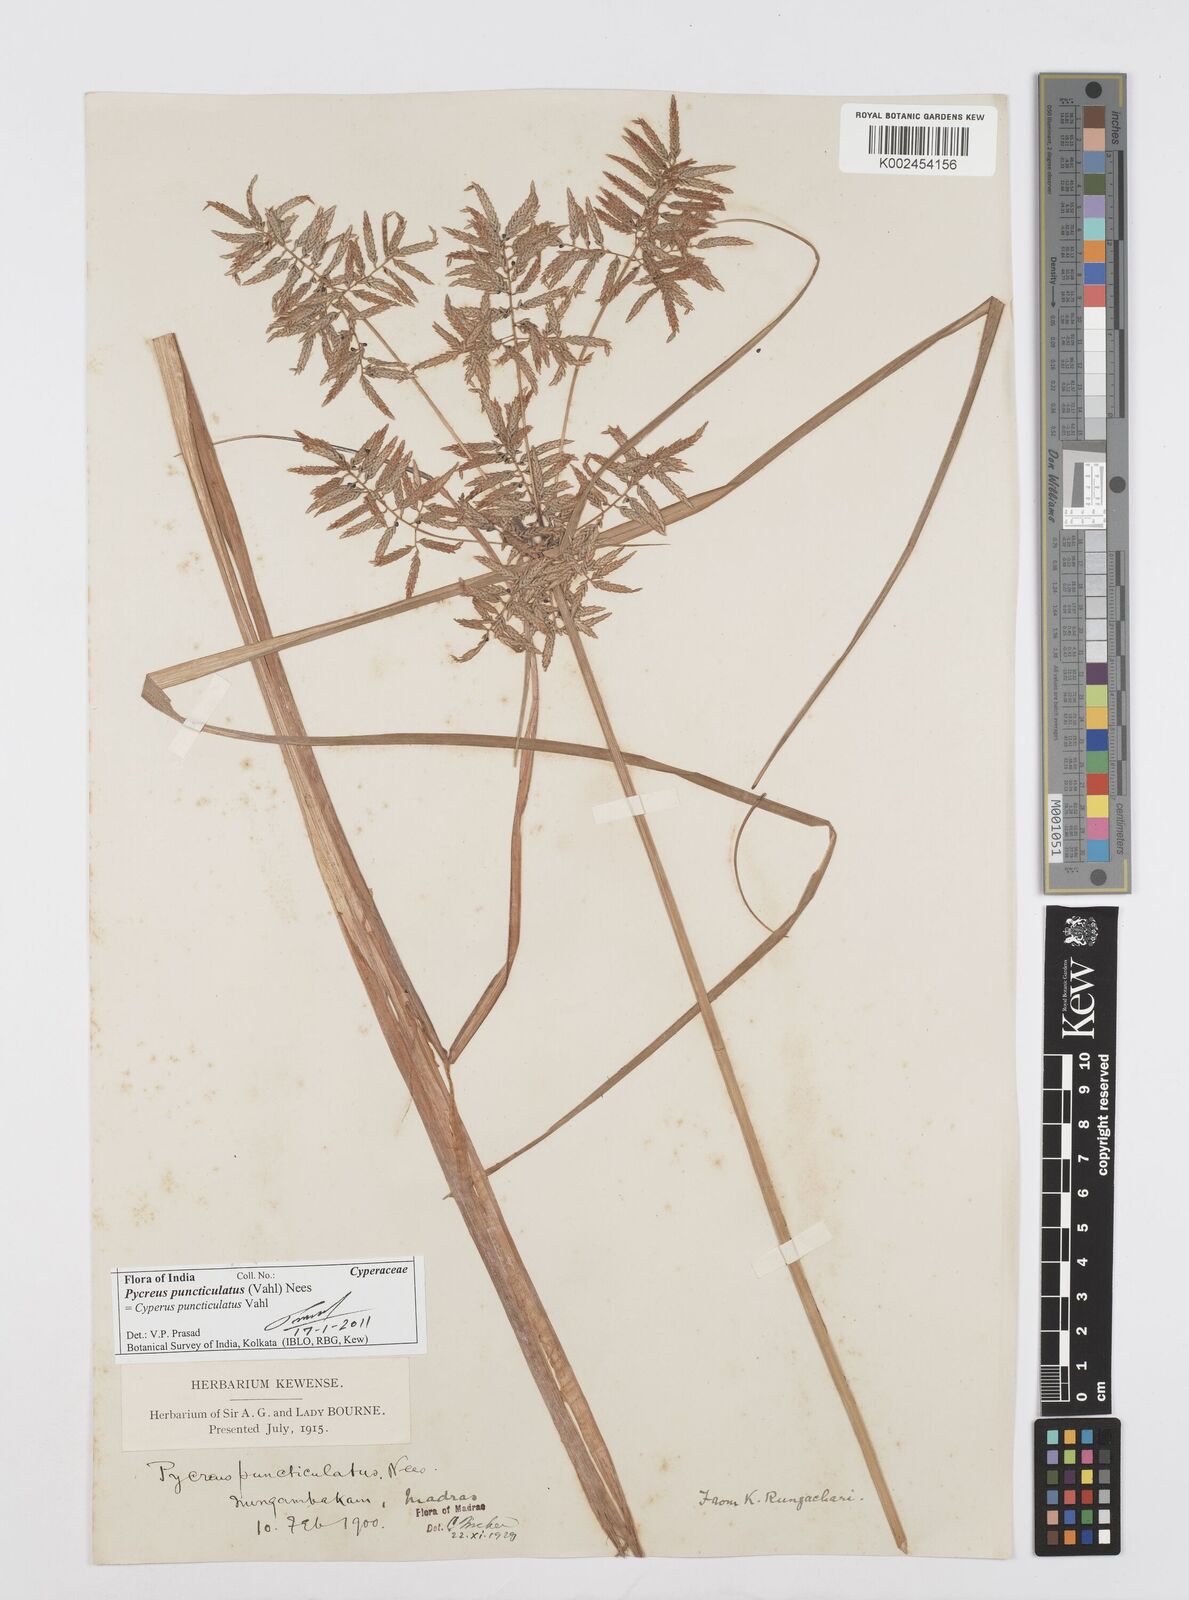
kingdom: Plantae
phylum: Tracheophyta
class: Liliopsida
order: Poales
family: Cyperaceae
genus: Cyperus
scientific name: Cyperus serotinus
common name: Tidalmarsh flatsedge
